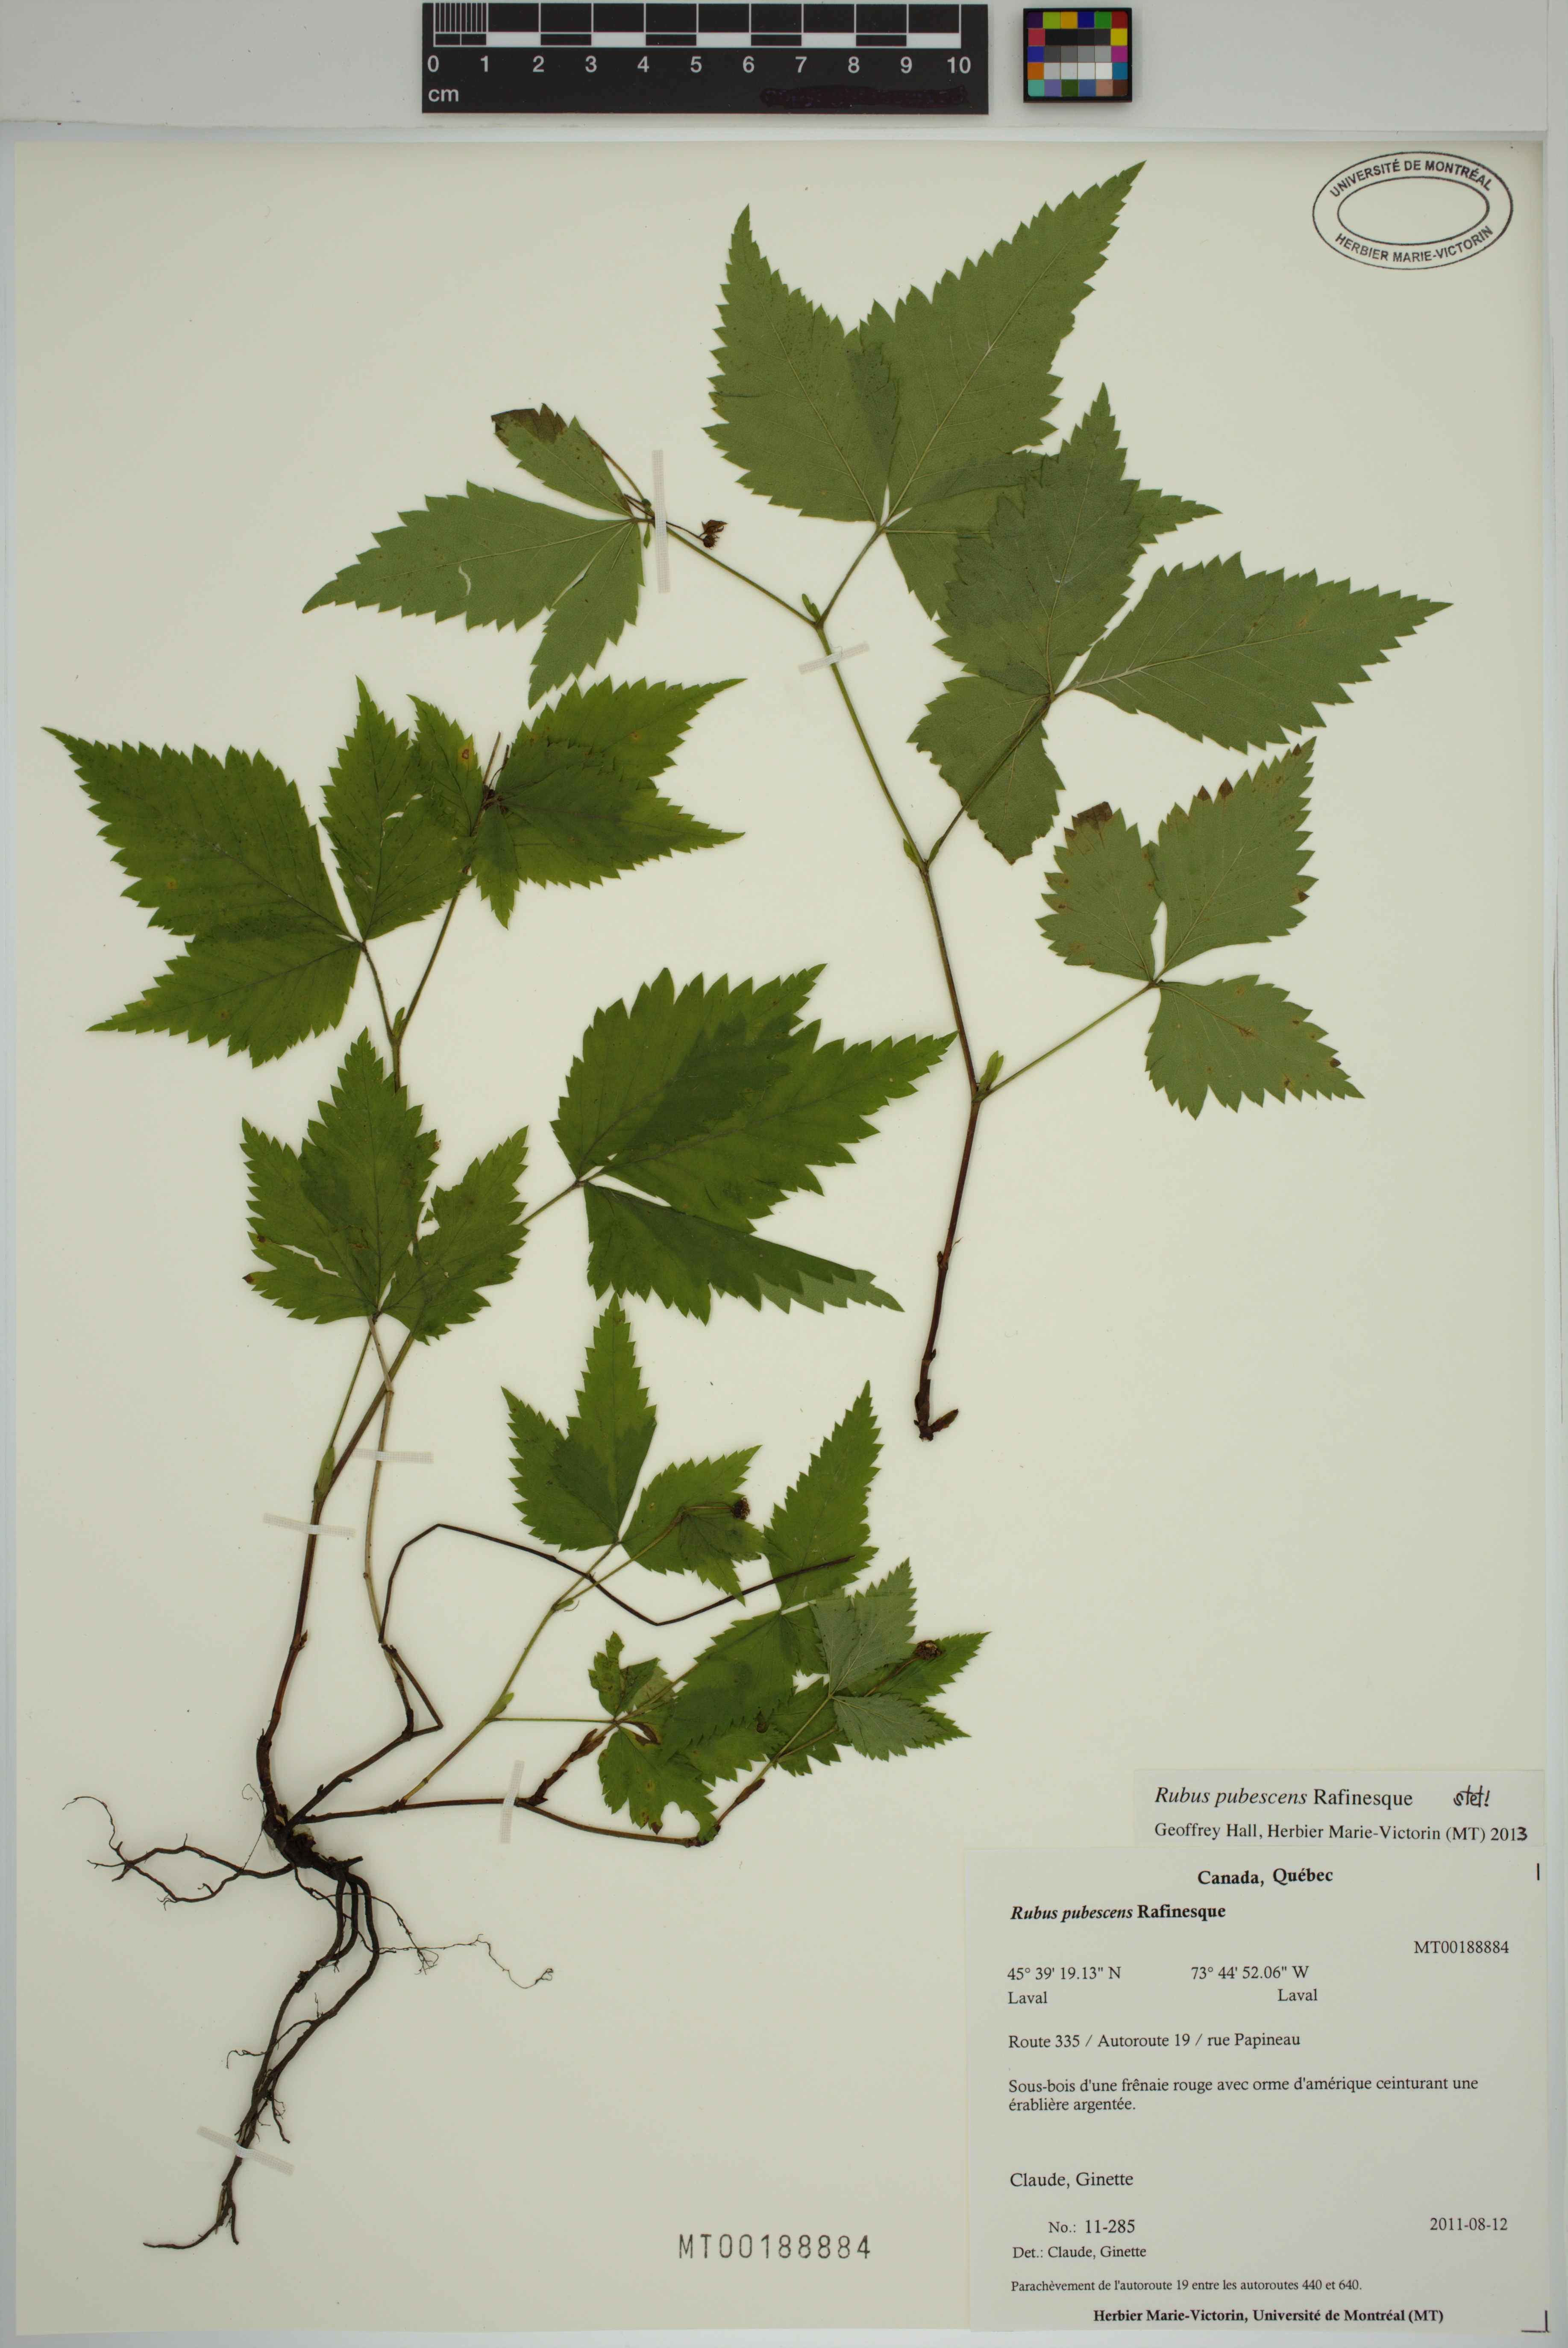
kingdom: Plantae
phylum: Tracheophyta
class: Magnoliopsida
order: Rosales
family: Rosaceae
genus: Rubus
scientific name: Rubus pubescens
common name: Dwarf raspberry
